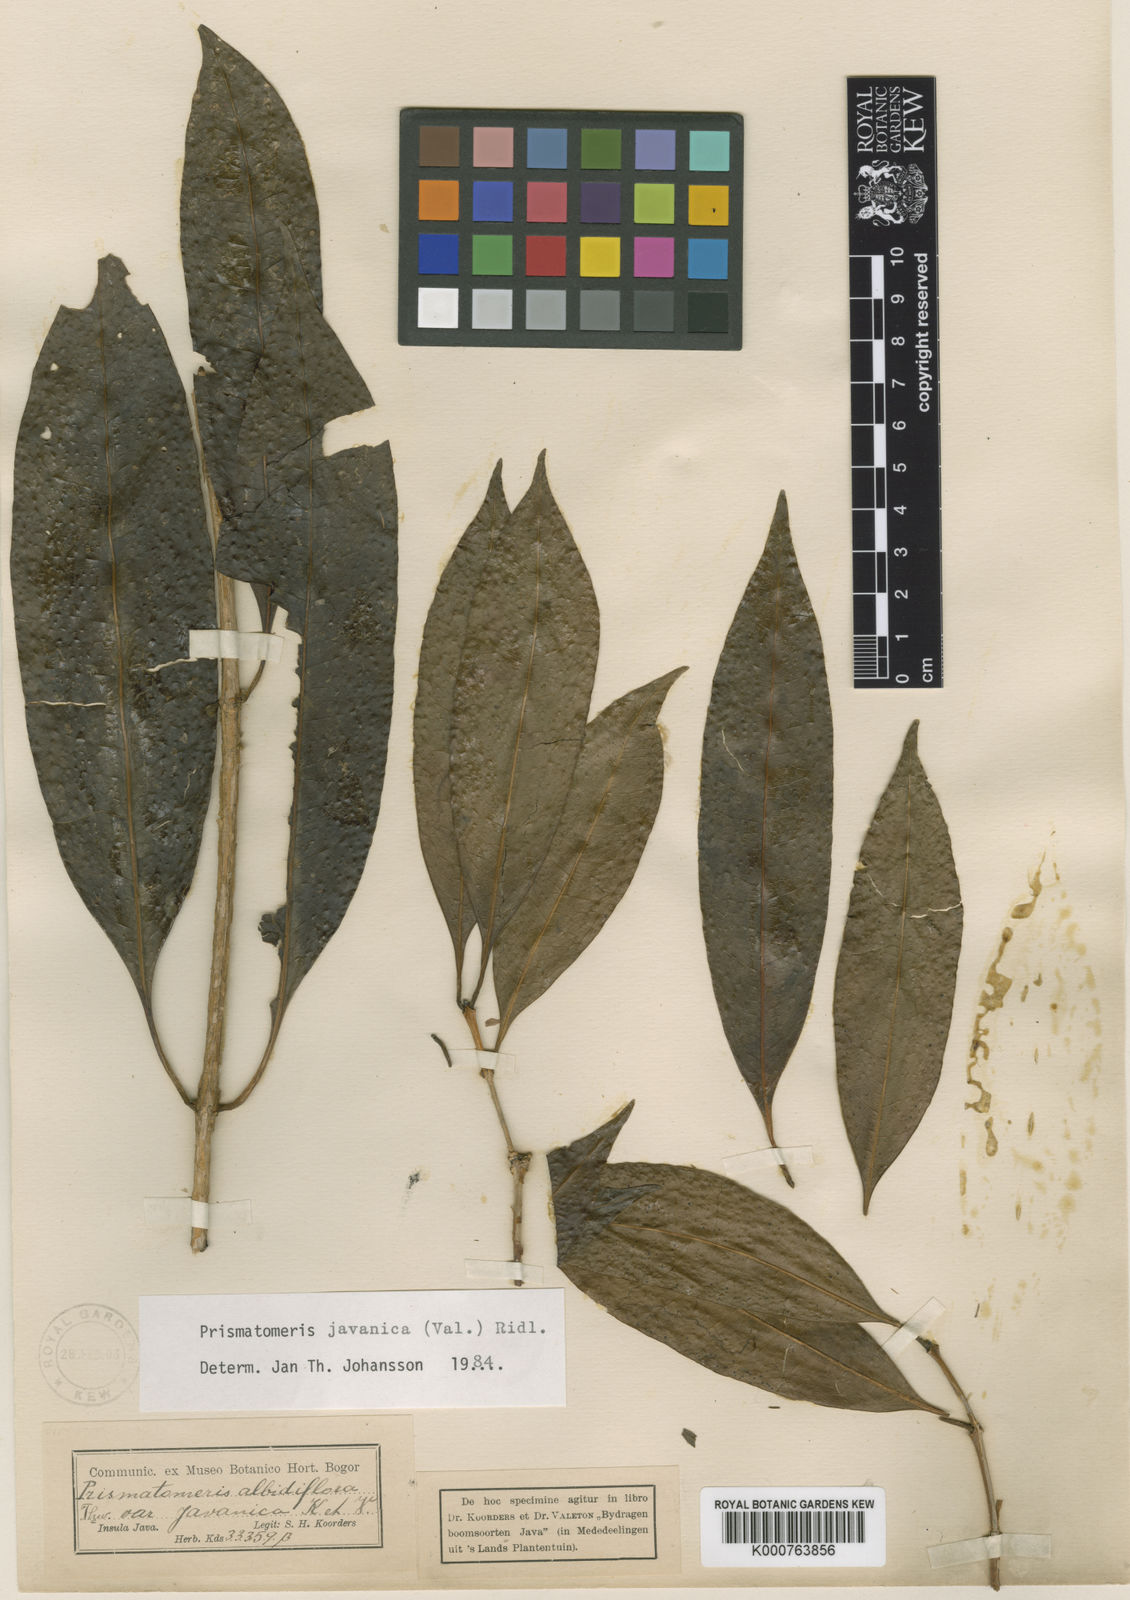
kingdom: Plantae
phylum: Tracheophyta
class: Magnoliopsida
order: Gentianales
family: Rubiaceae
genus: Prismatomeris
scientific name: Prismatomeris javanica
